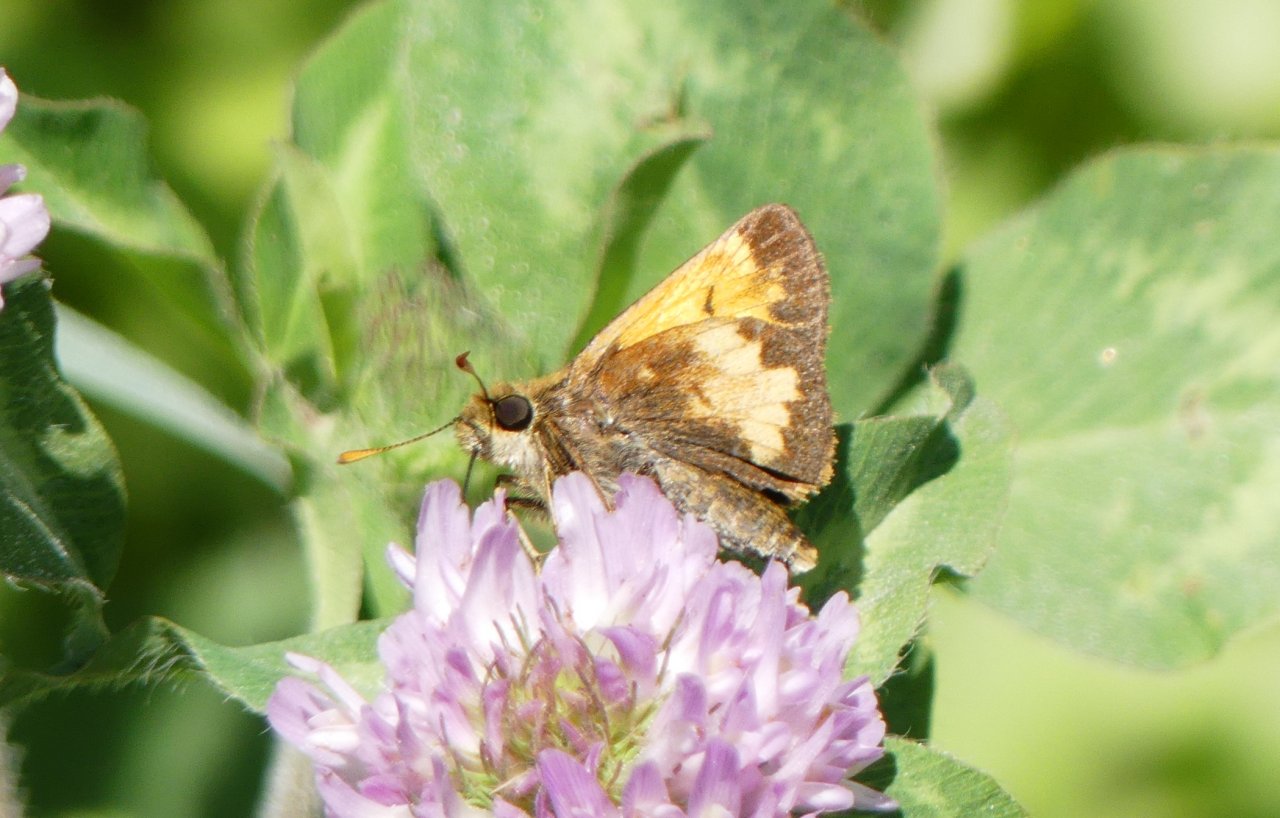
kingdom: Animalia
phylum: Arthropoda
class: Insecta
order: Lepidoptera
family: Hesperiidae
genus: Lon
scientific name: Lon hobomok
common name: Hobomok Skipper
